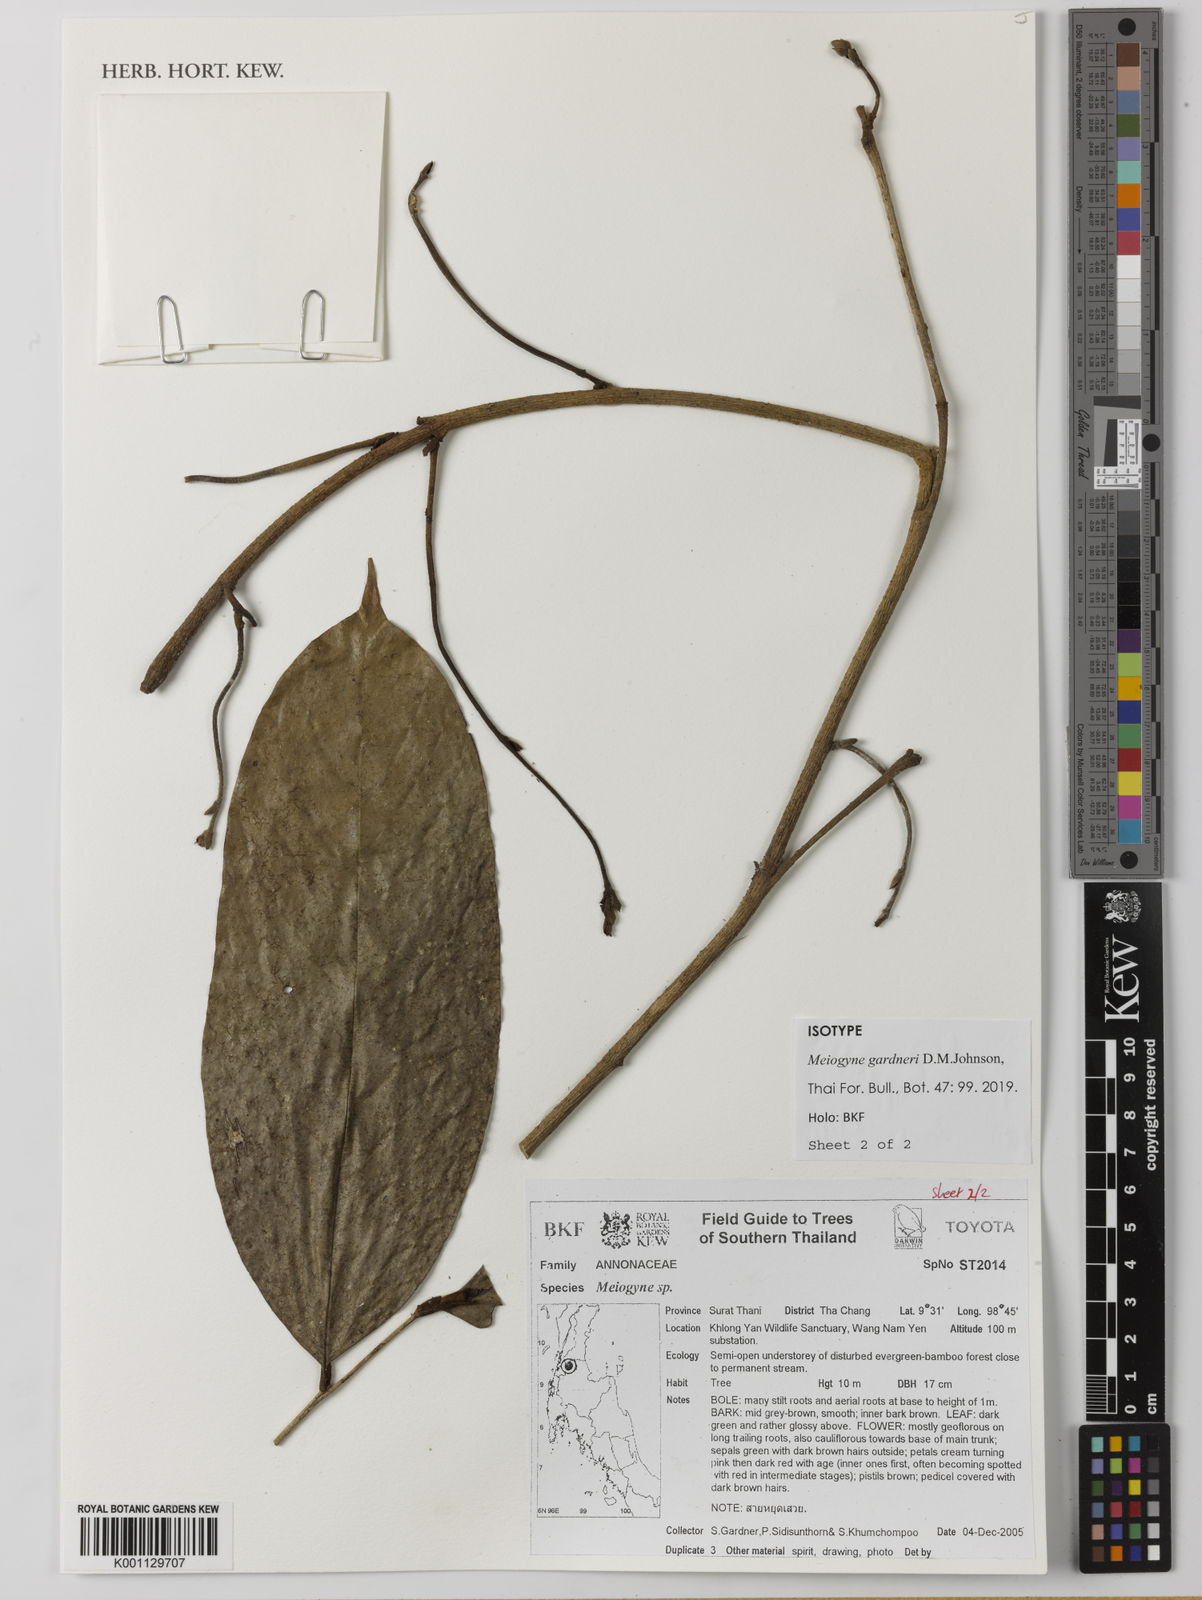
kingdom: Plantae
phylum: Tracheophyta
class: Magnoliopsida
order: Magnoliales
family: Annonaceae
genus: Meiogyne
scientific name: Meiogyne gardneri
